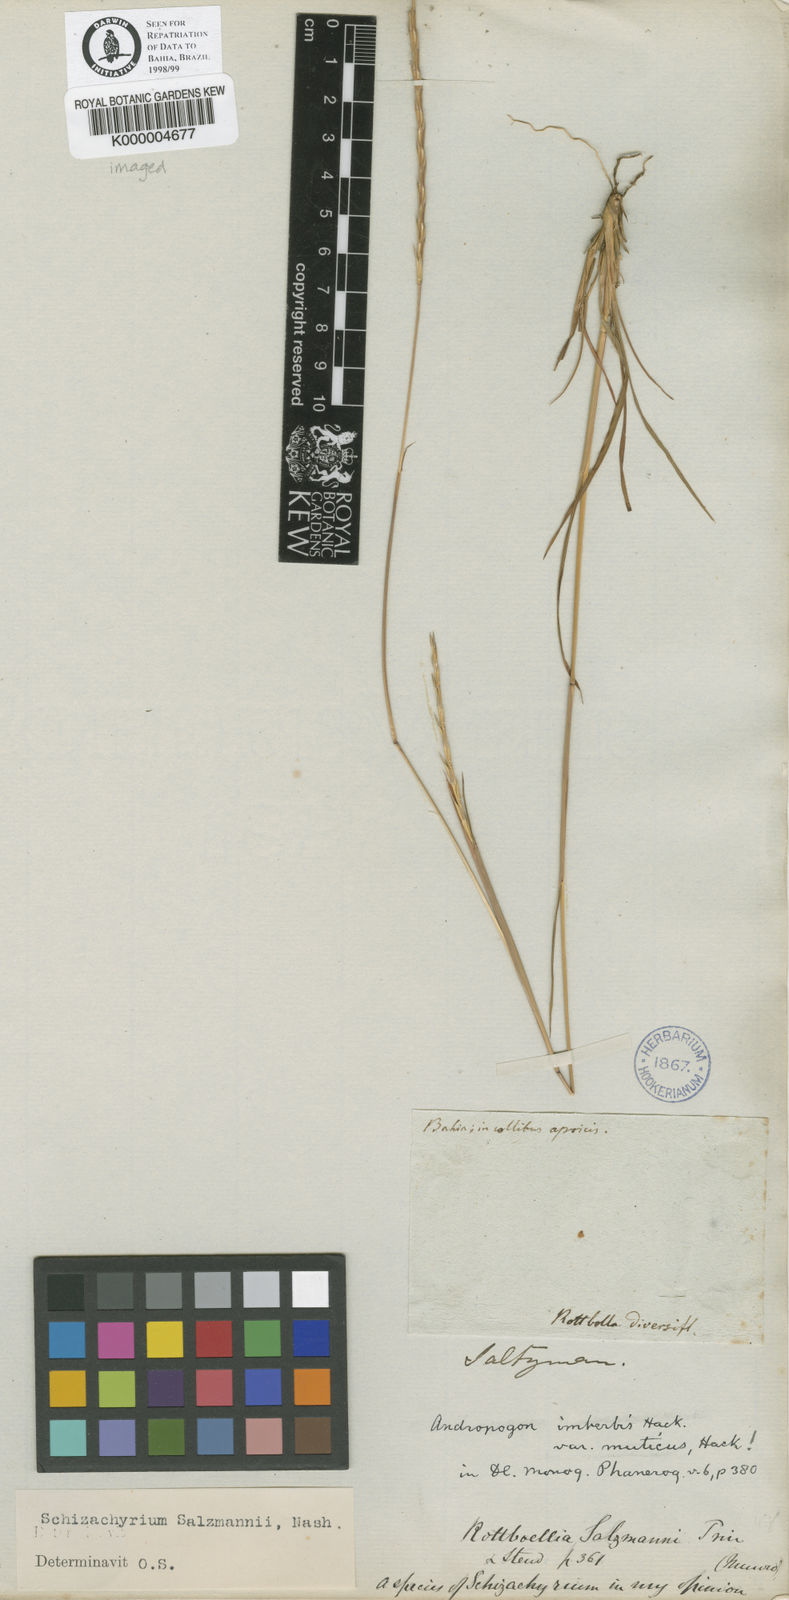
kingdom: Plantae
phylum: Tracheophyta
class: Liliopsida
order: Poales
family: Poaceae
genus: Andropogon
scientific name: Andropogon salzmannii
